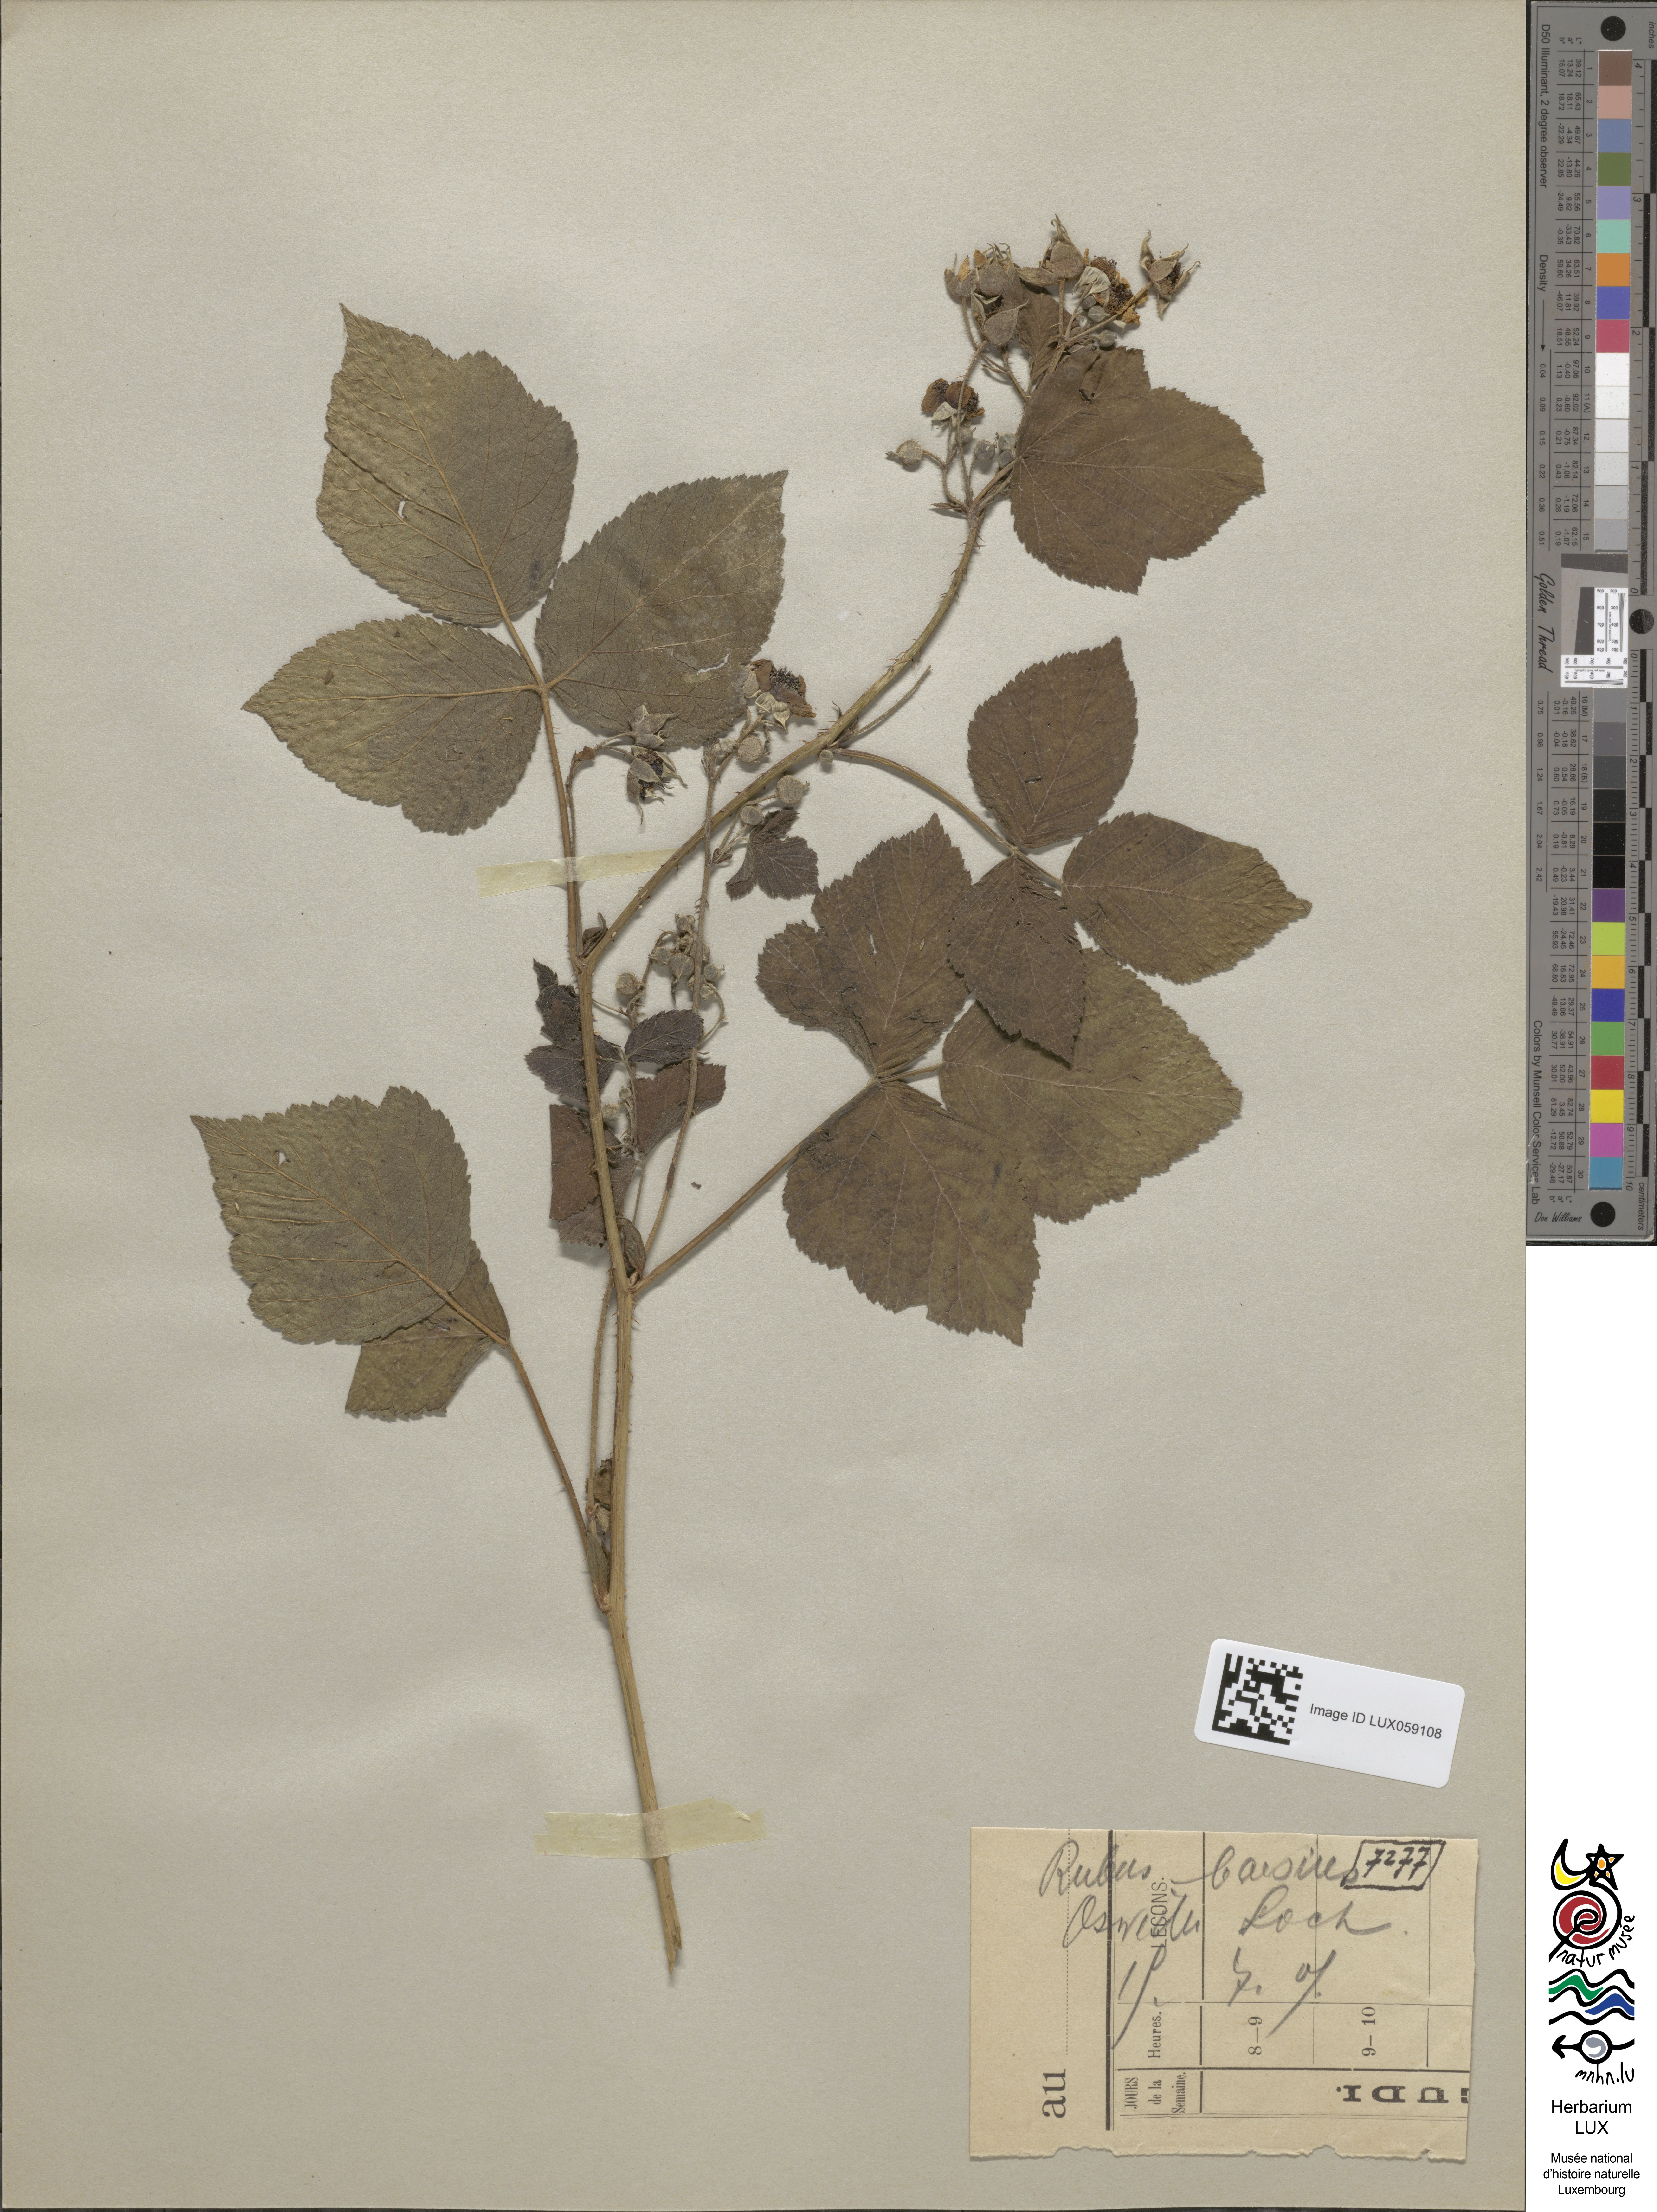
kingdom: Plantae
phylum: Tracheophyta
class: Magnoliopsida
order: Rosales
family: Rosaceae
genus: Rubus
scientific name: Rubus caesius
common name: Dewberry
